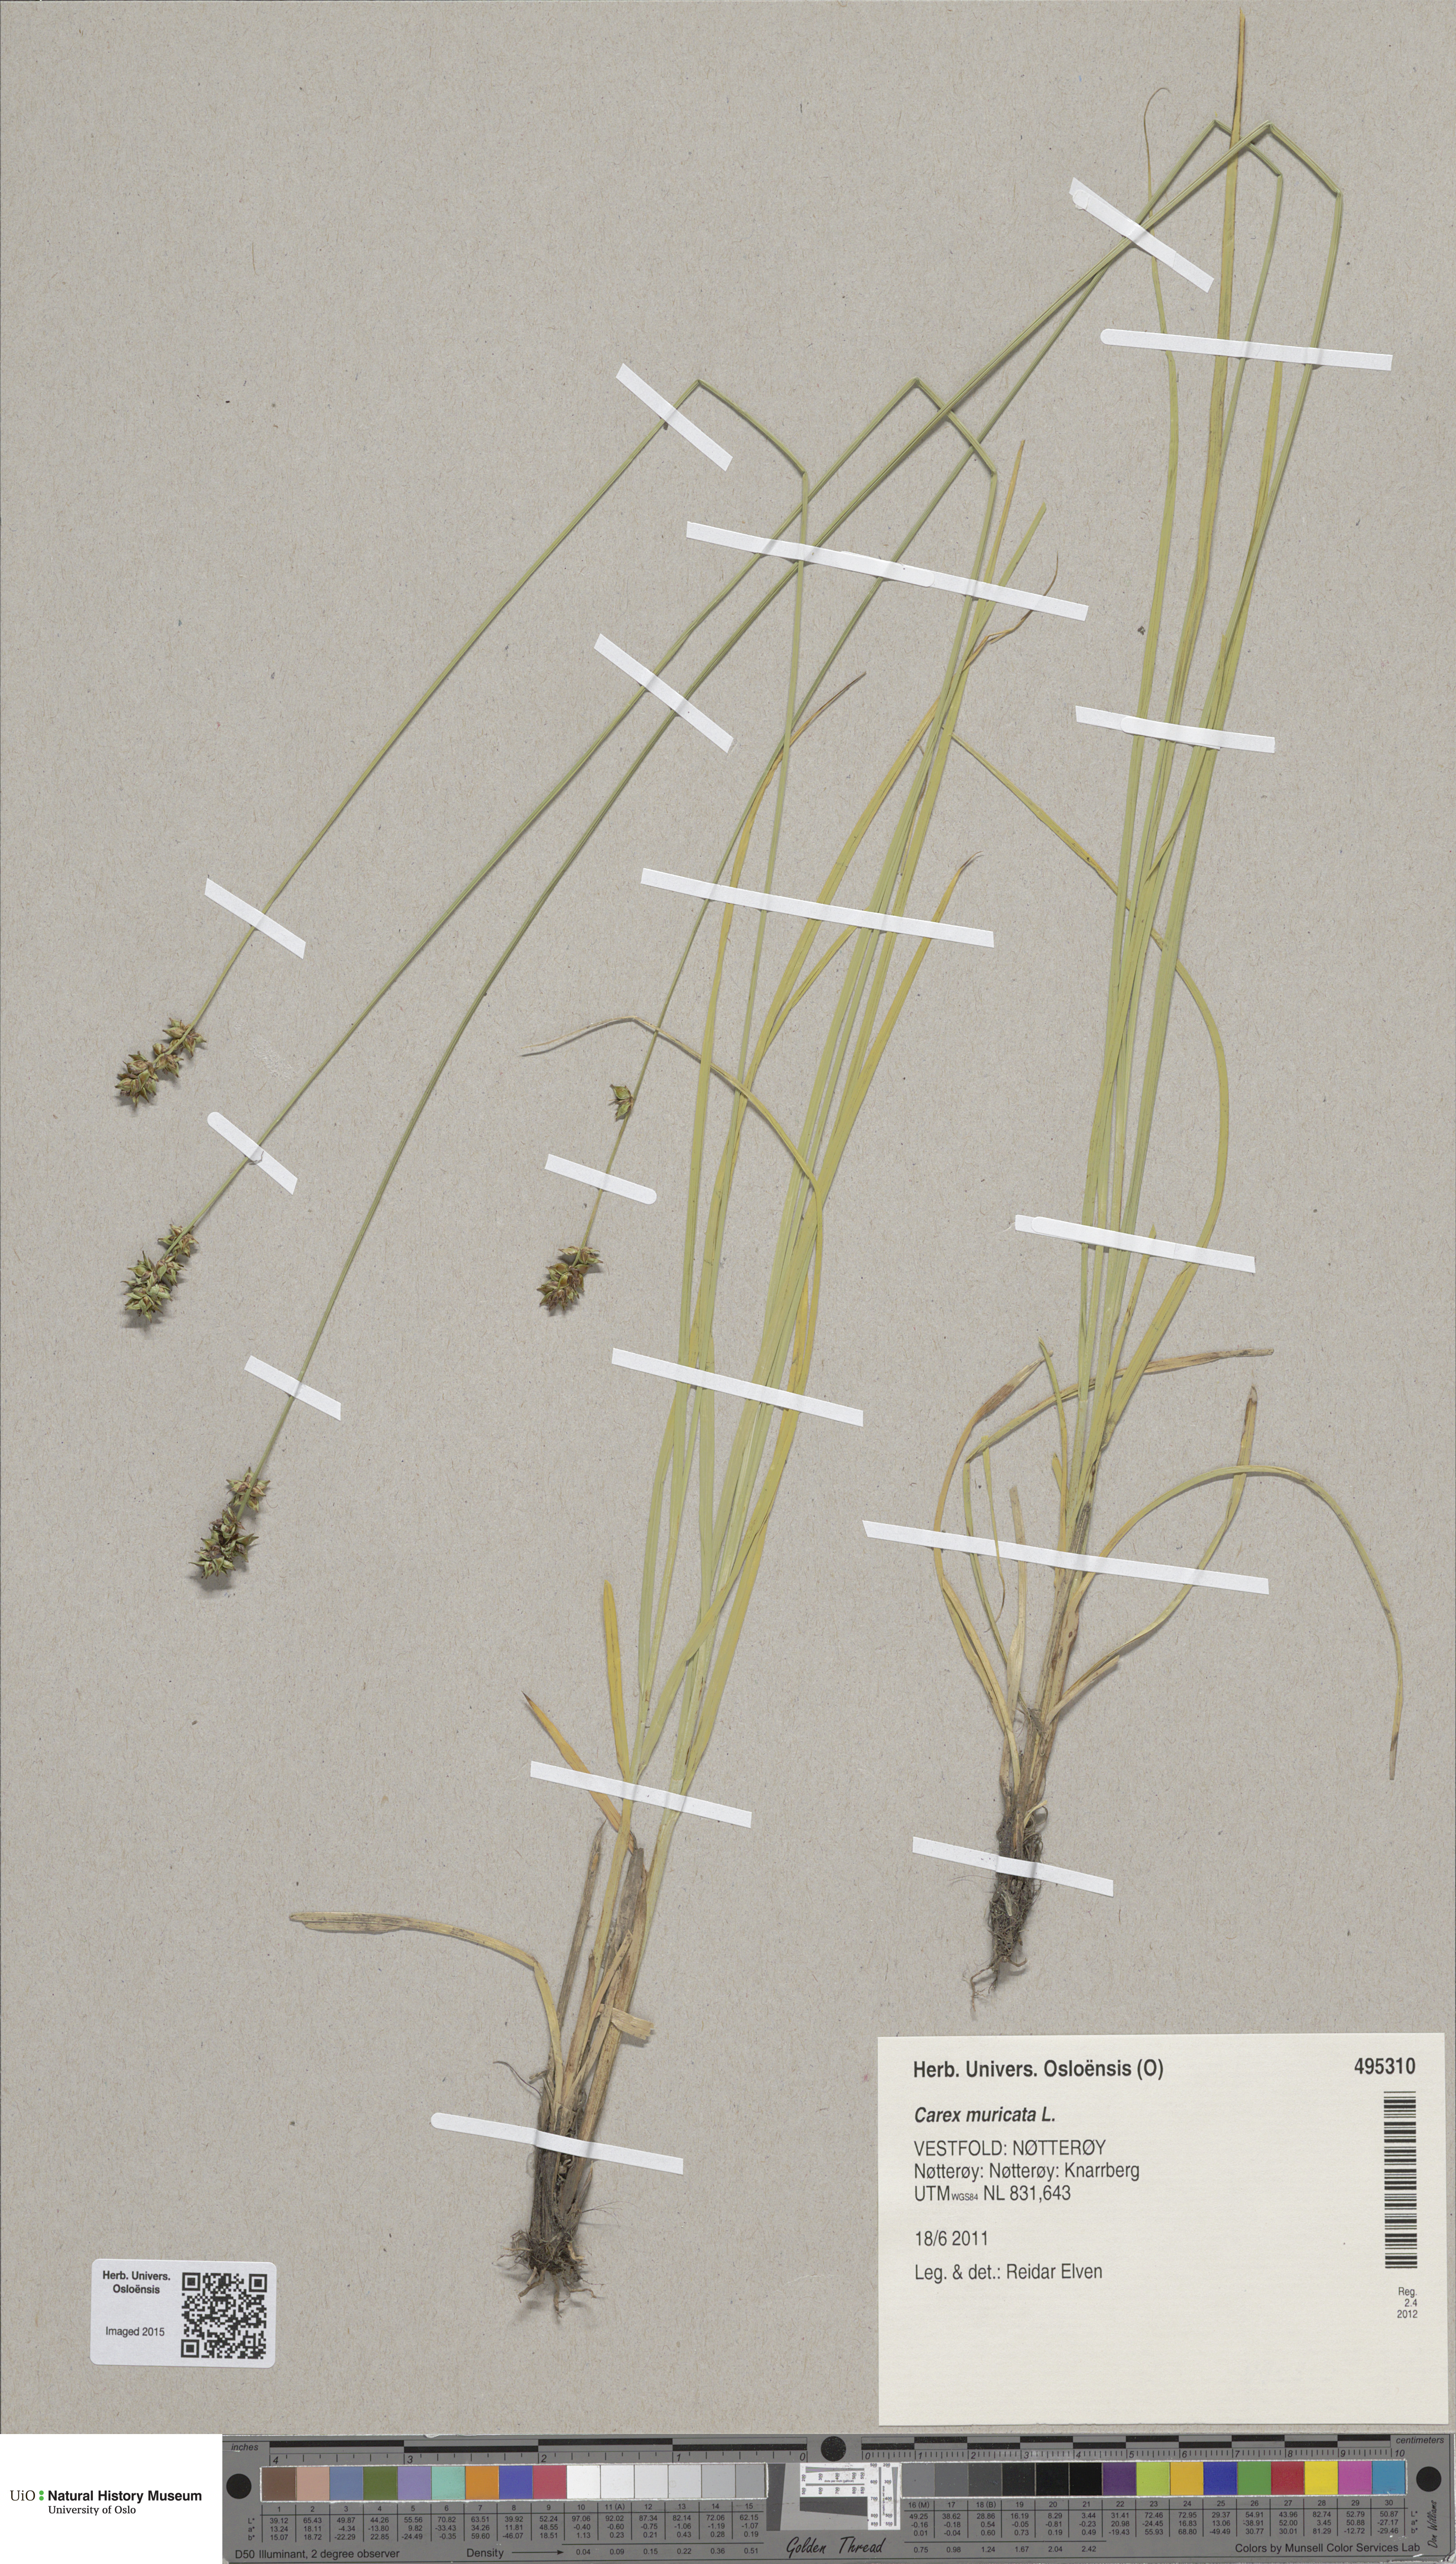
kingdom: Plantae
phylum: Tracheophyta
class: Liliopsida
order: Poales
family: Cyperaceae
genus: Carex
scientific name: Carex muricata
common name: Rough sedge
